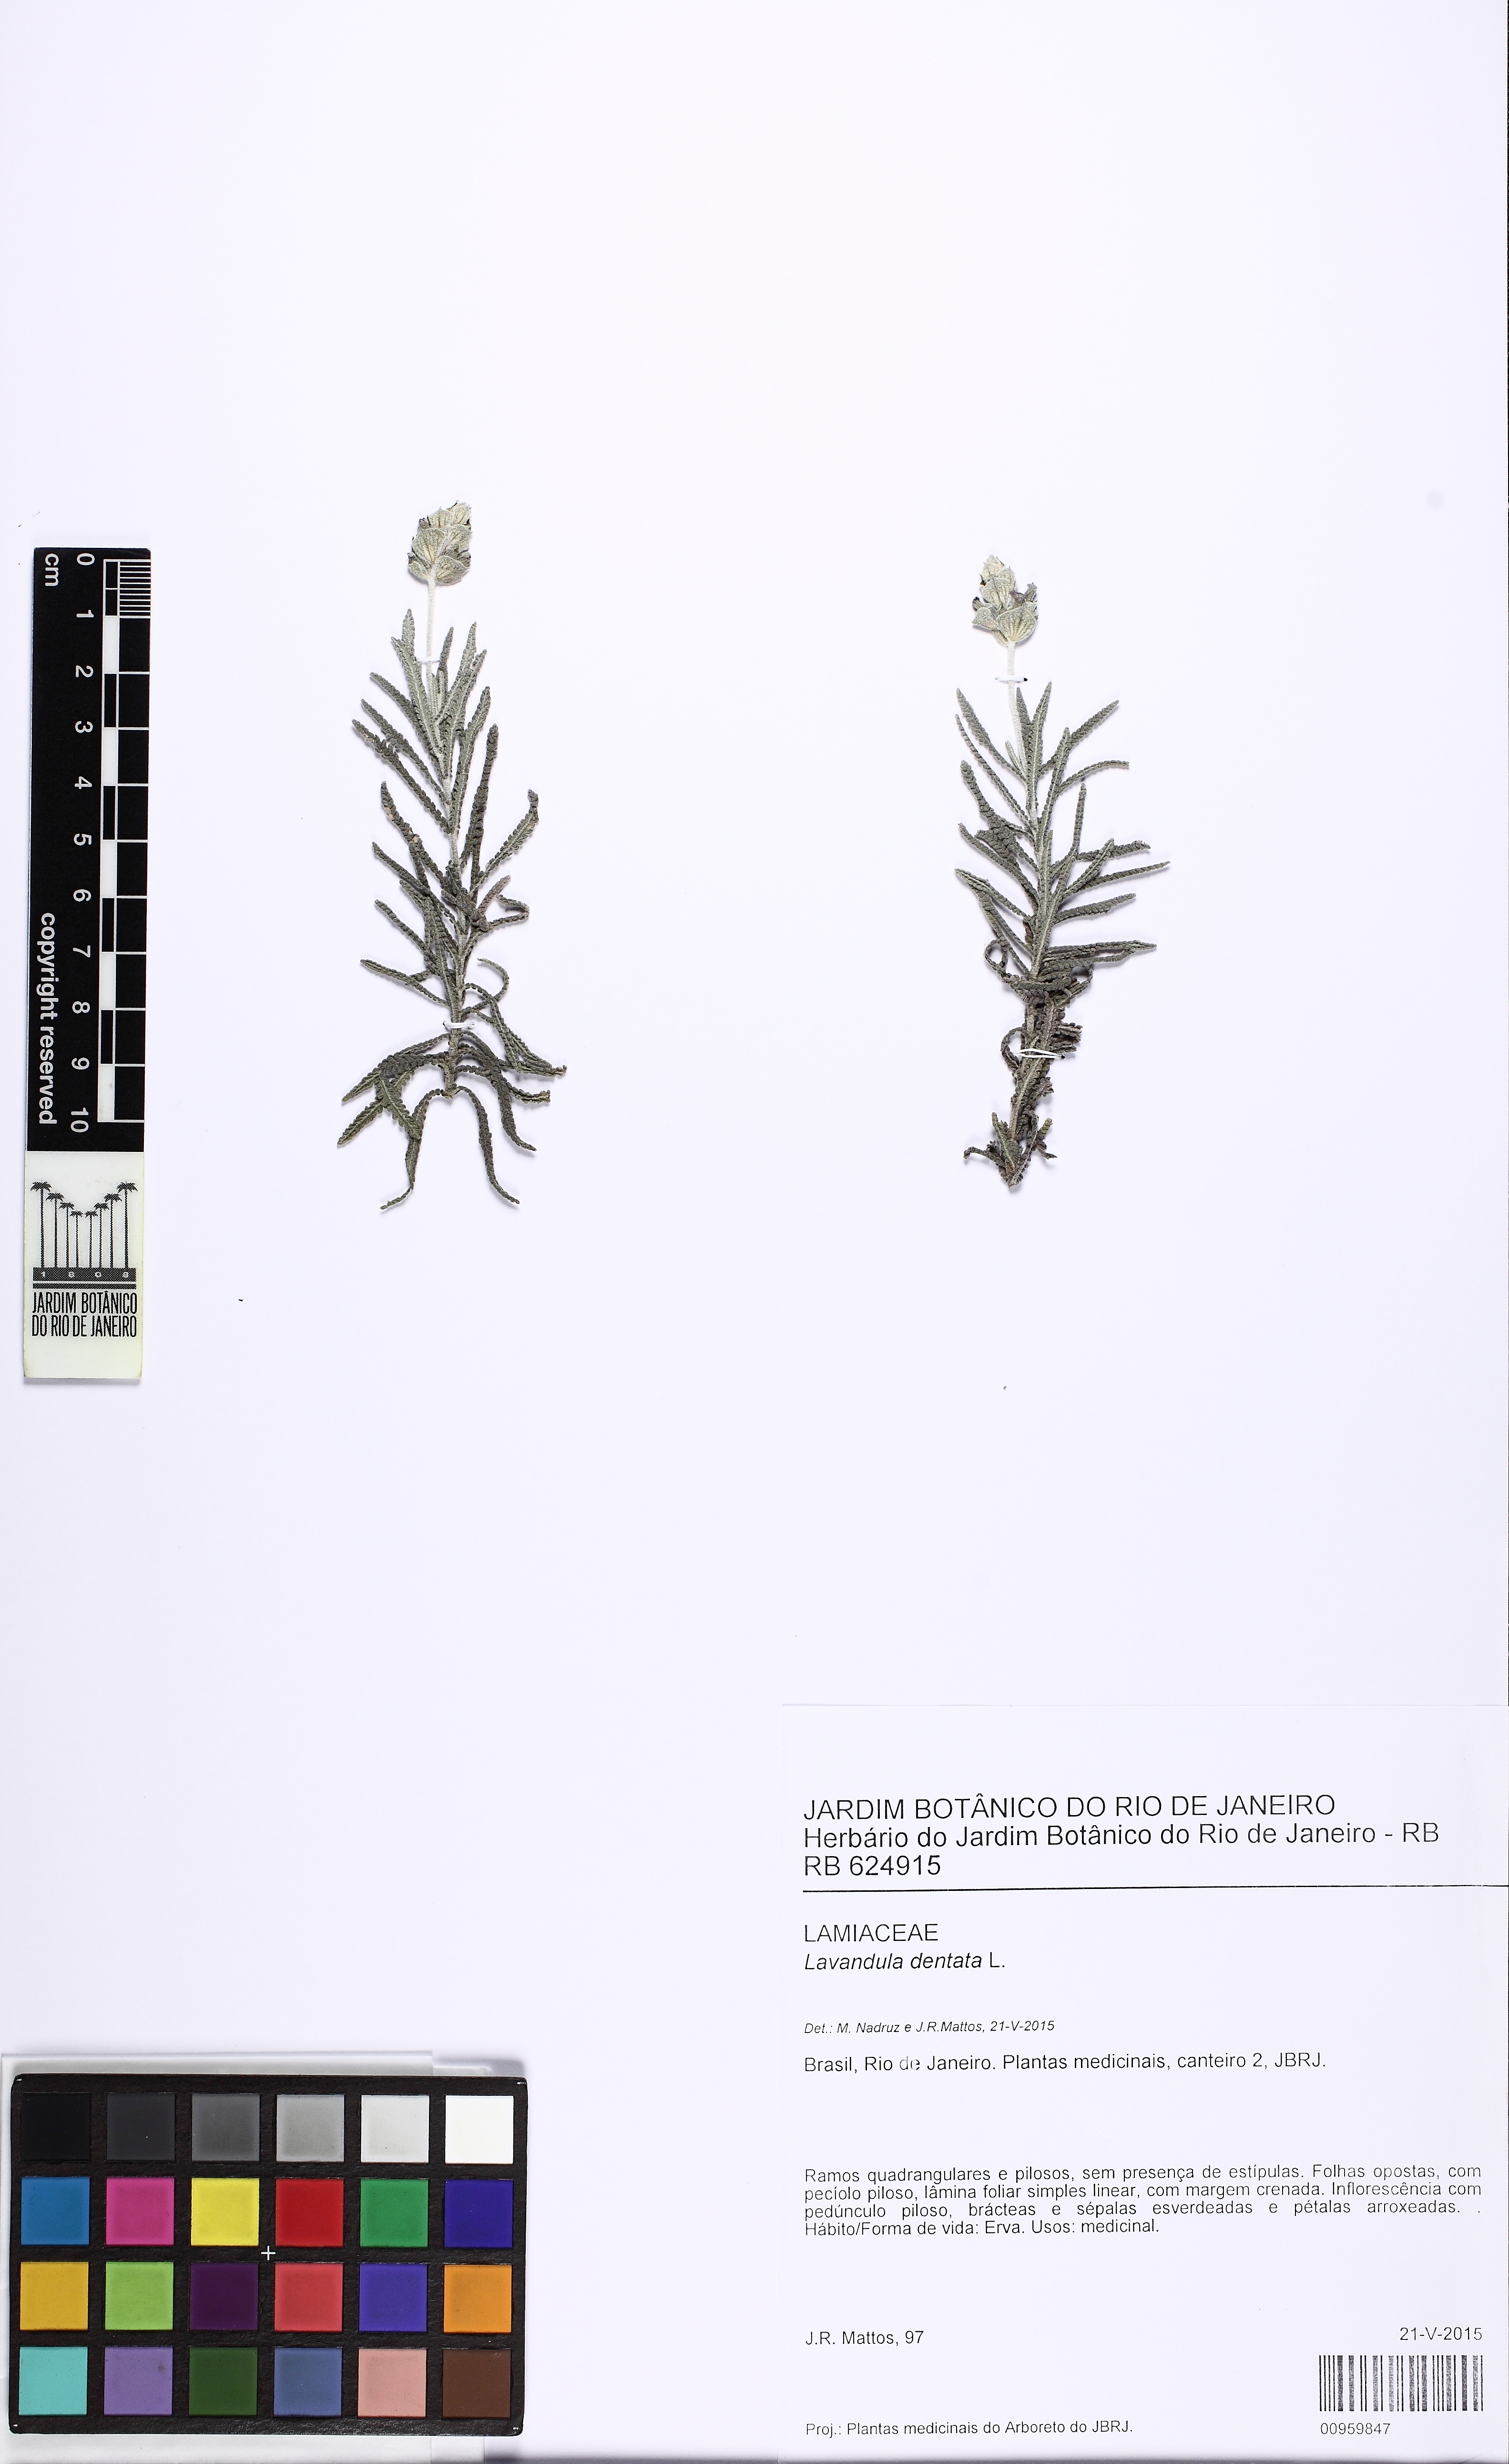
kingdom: Plantae
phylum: Tracheophyta
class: Magnoliopsida
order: Lamiales
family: Lamiaceae
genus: Lavandula
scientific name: Lavandula dentata
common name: French lavender
